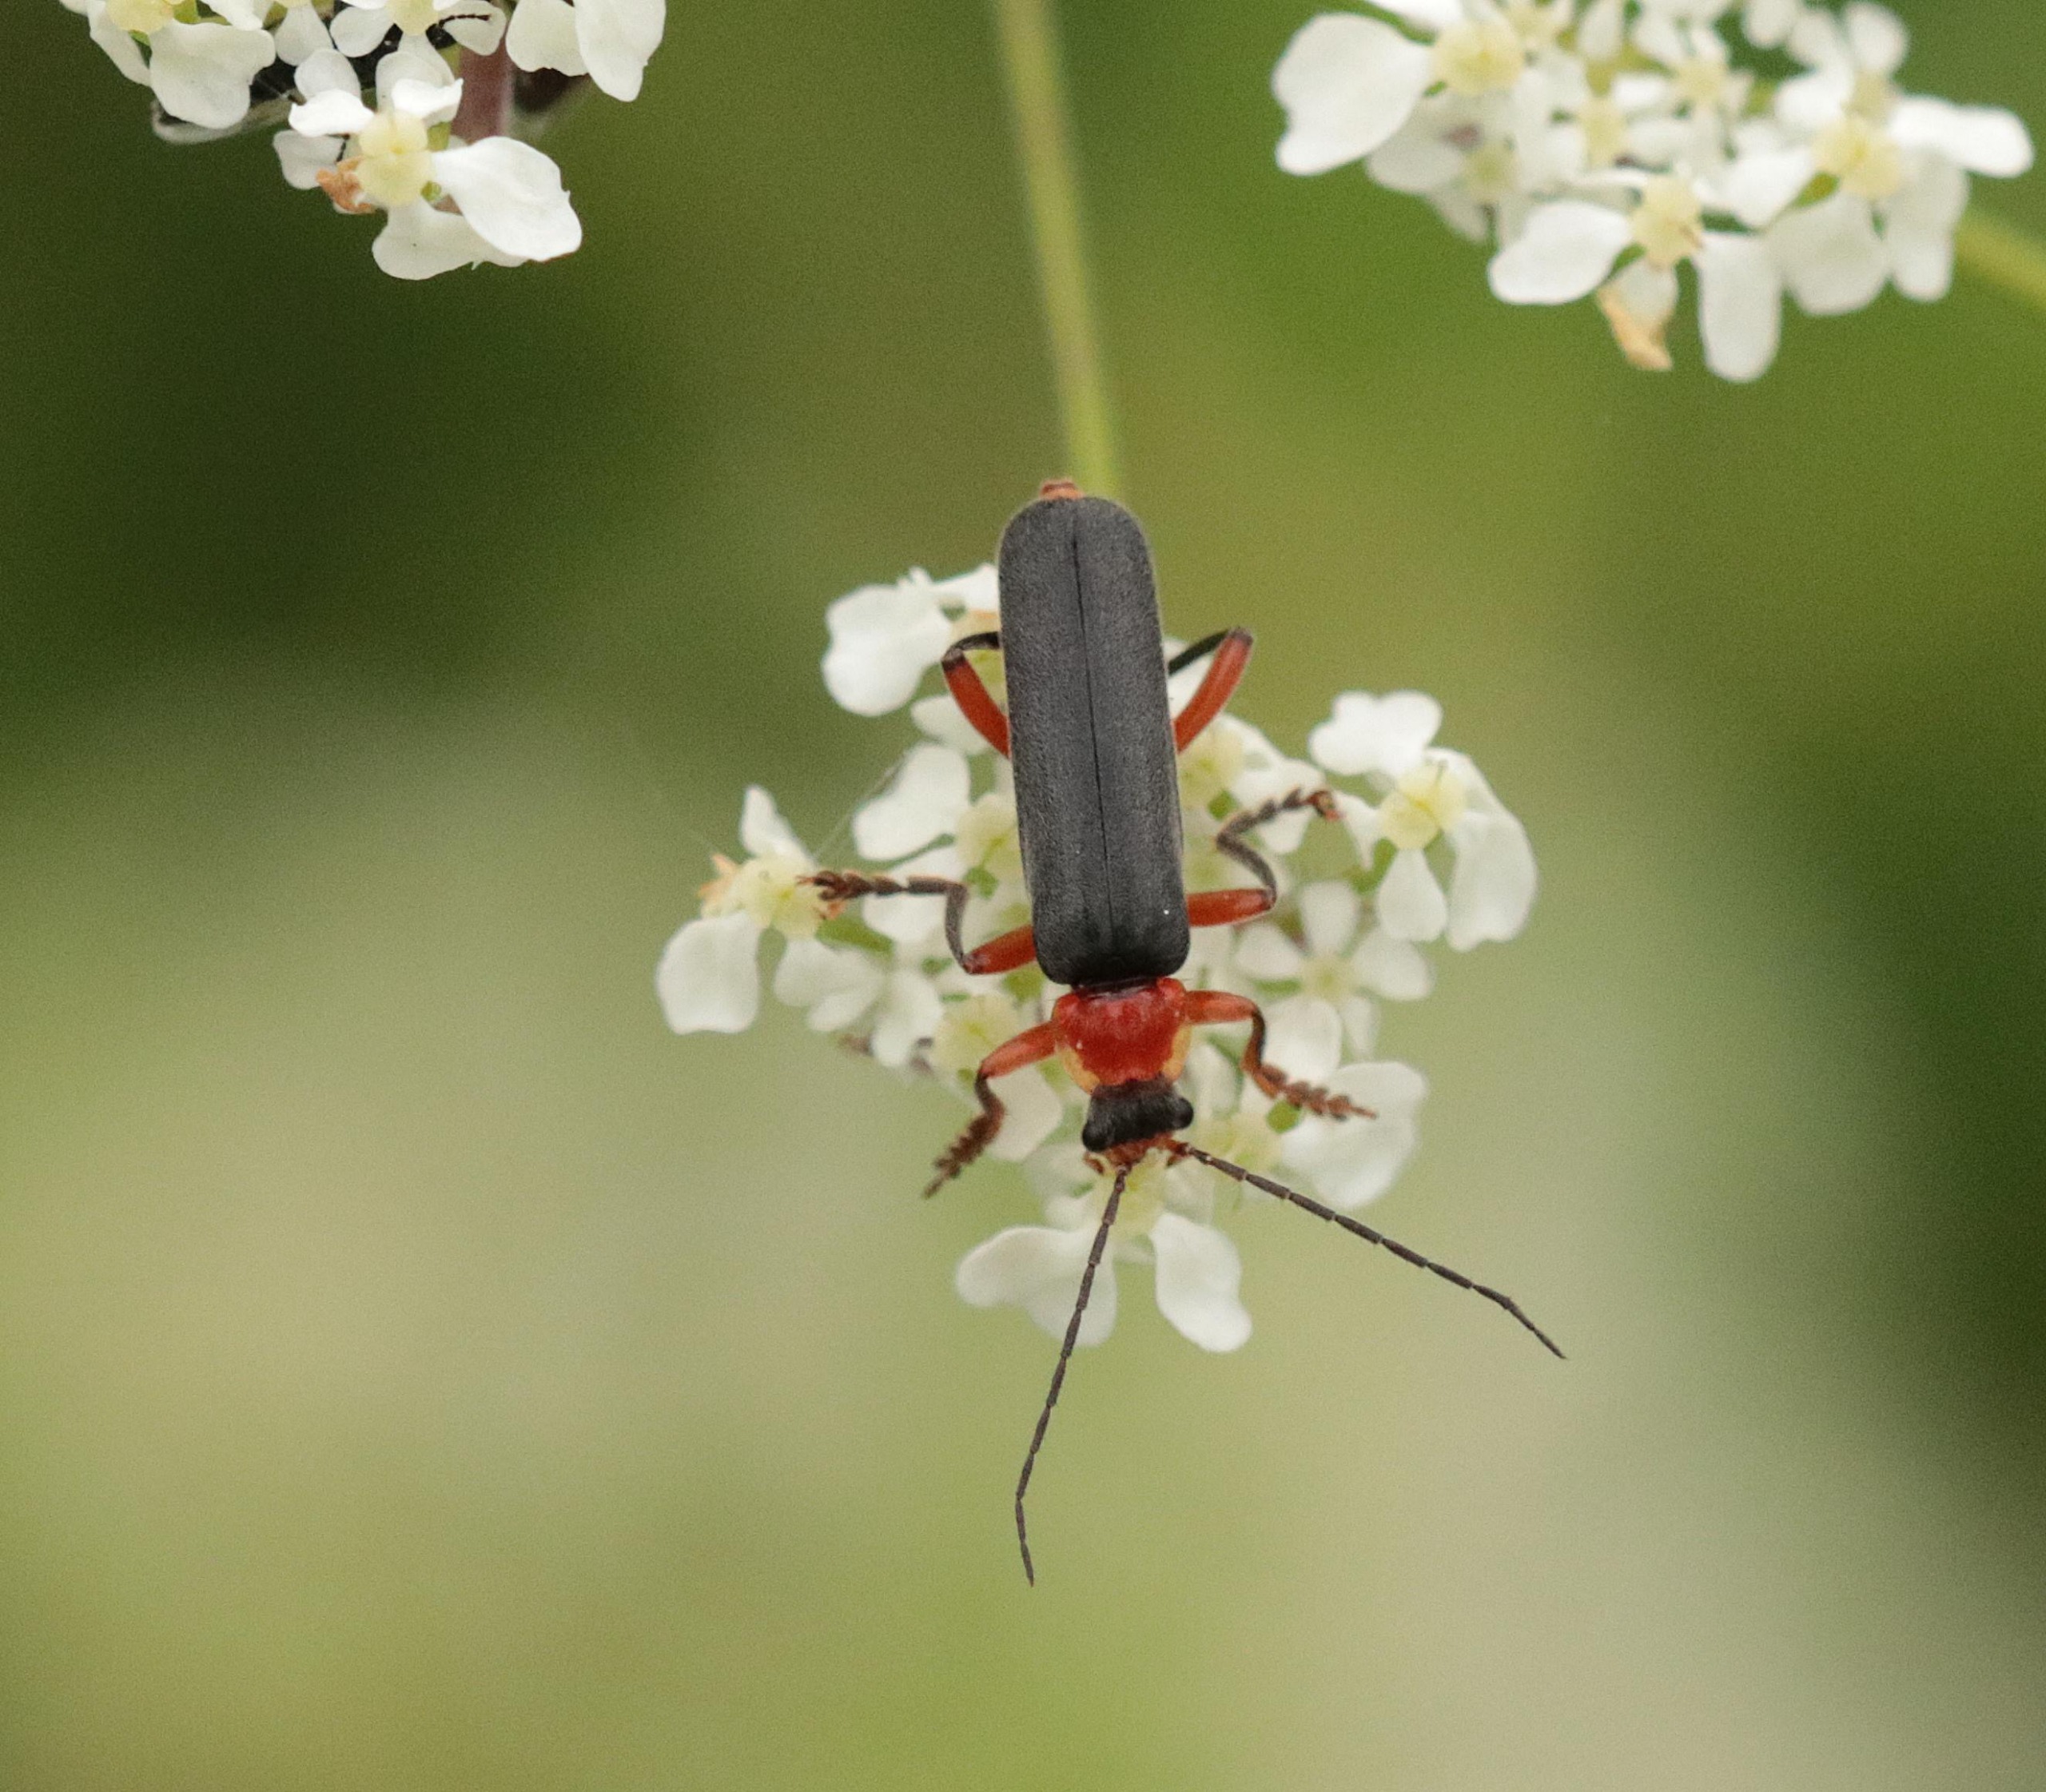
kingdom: Animalia
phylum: Arthropoda
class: Insecta
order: Coleoptera
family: Cantharidae
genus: Cantharis
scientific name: Cantharis pellucida
